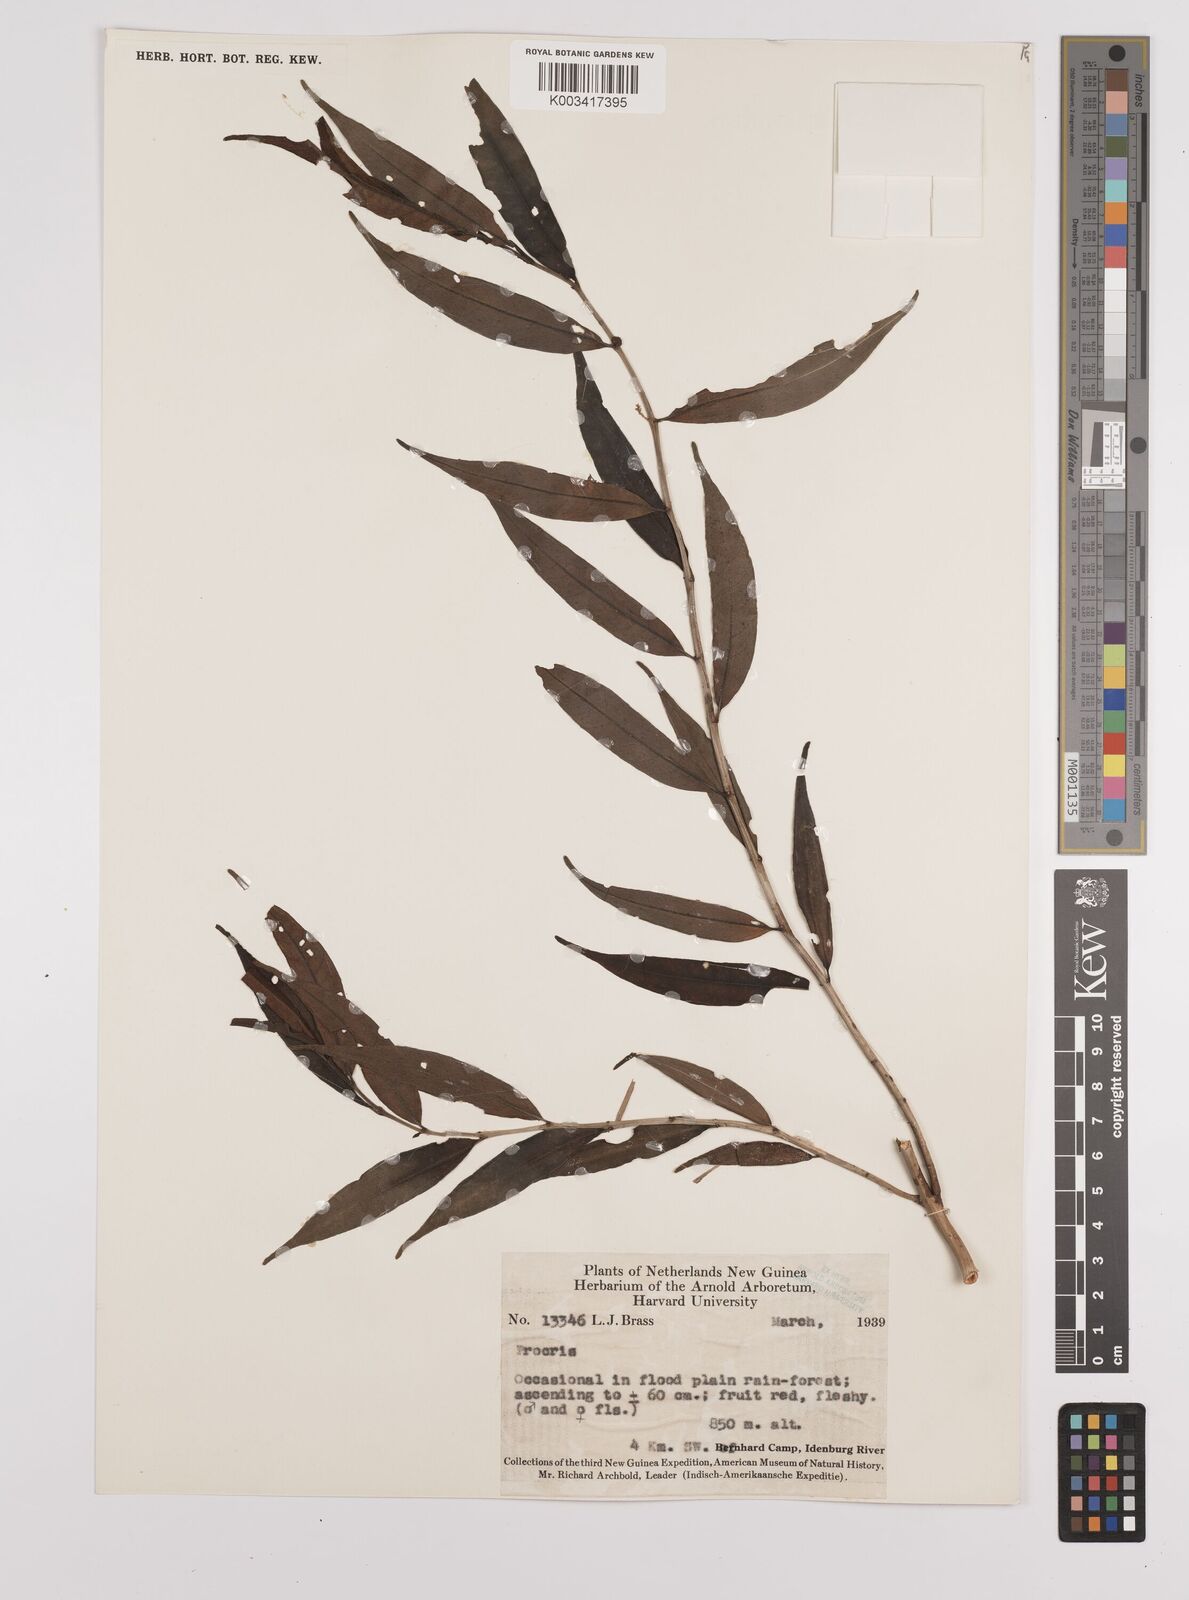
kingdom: Plantae
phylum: Tracheophyta
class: Magnoliopsida
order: Rosales
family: Urticaceae
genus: Procris
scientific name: Procris pedunculata
